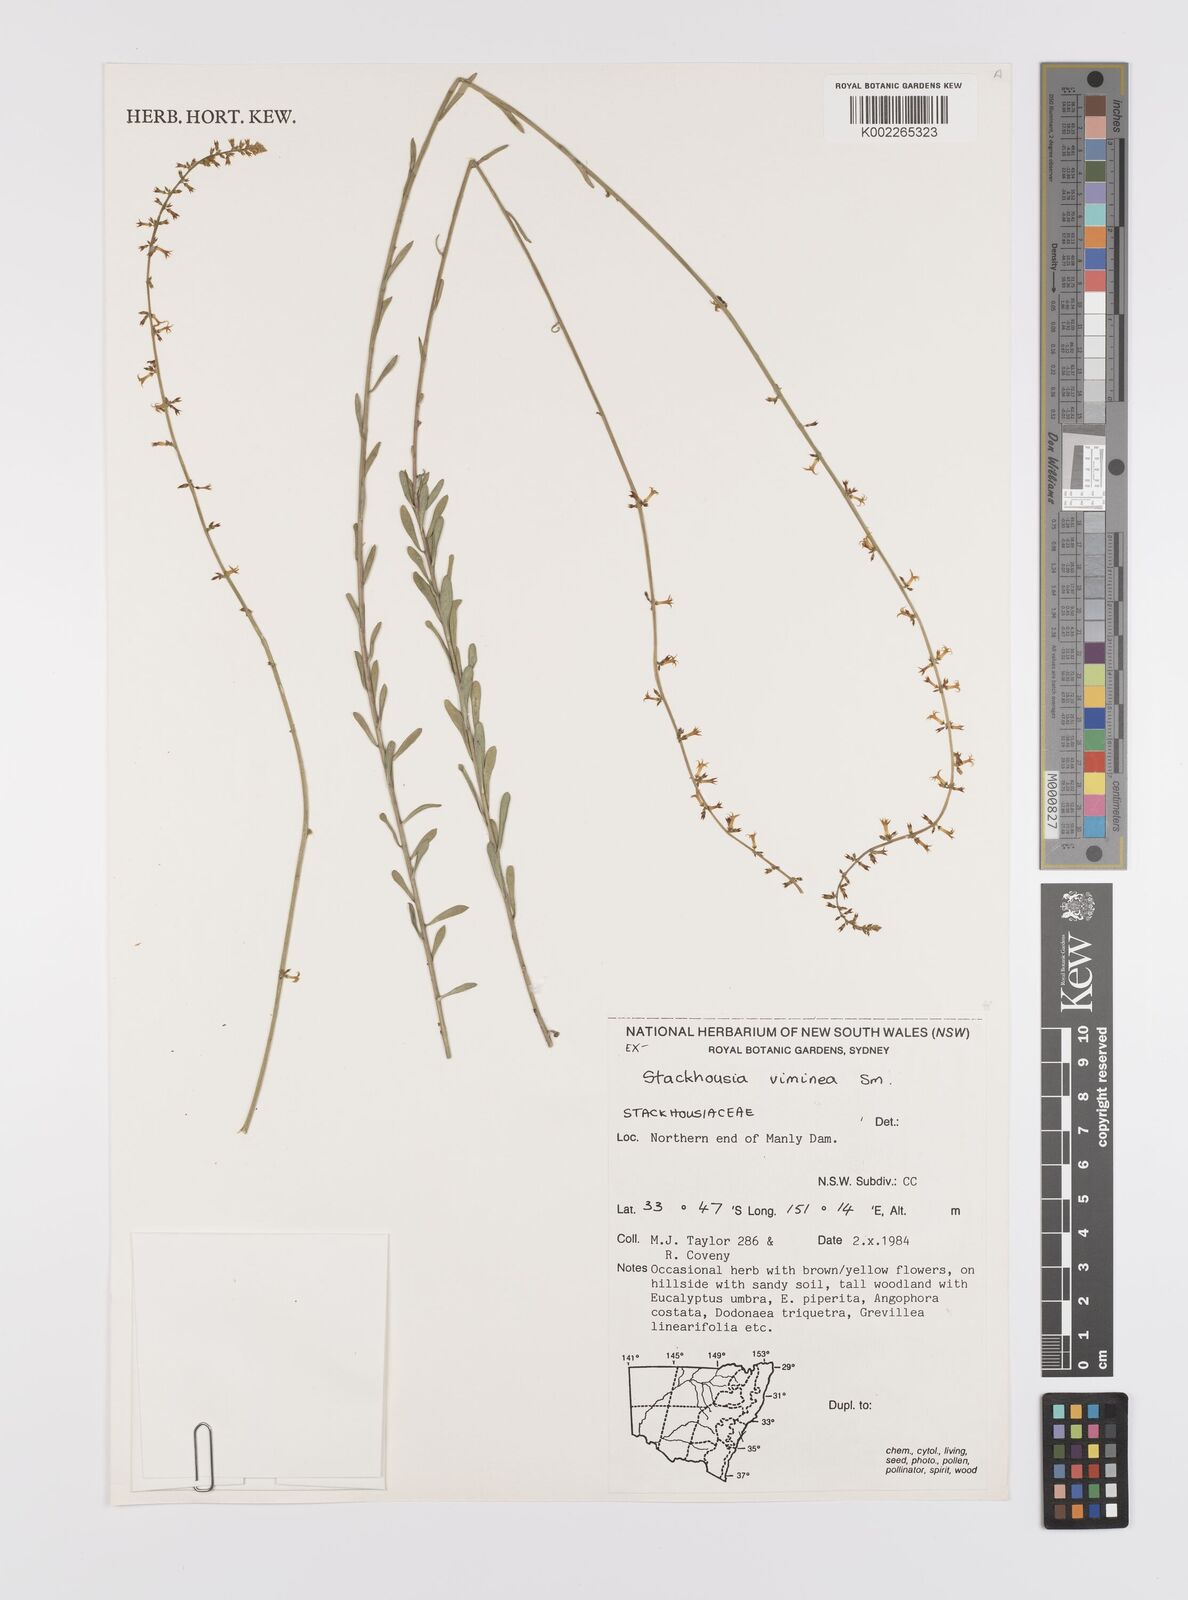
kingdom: Plantae
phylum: Tracheophyta
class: Magnoliopsida
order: Celastrales
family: Celastraceae
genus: Stackhousia
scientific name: Stackhousia viminea
